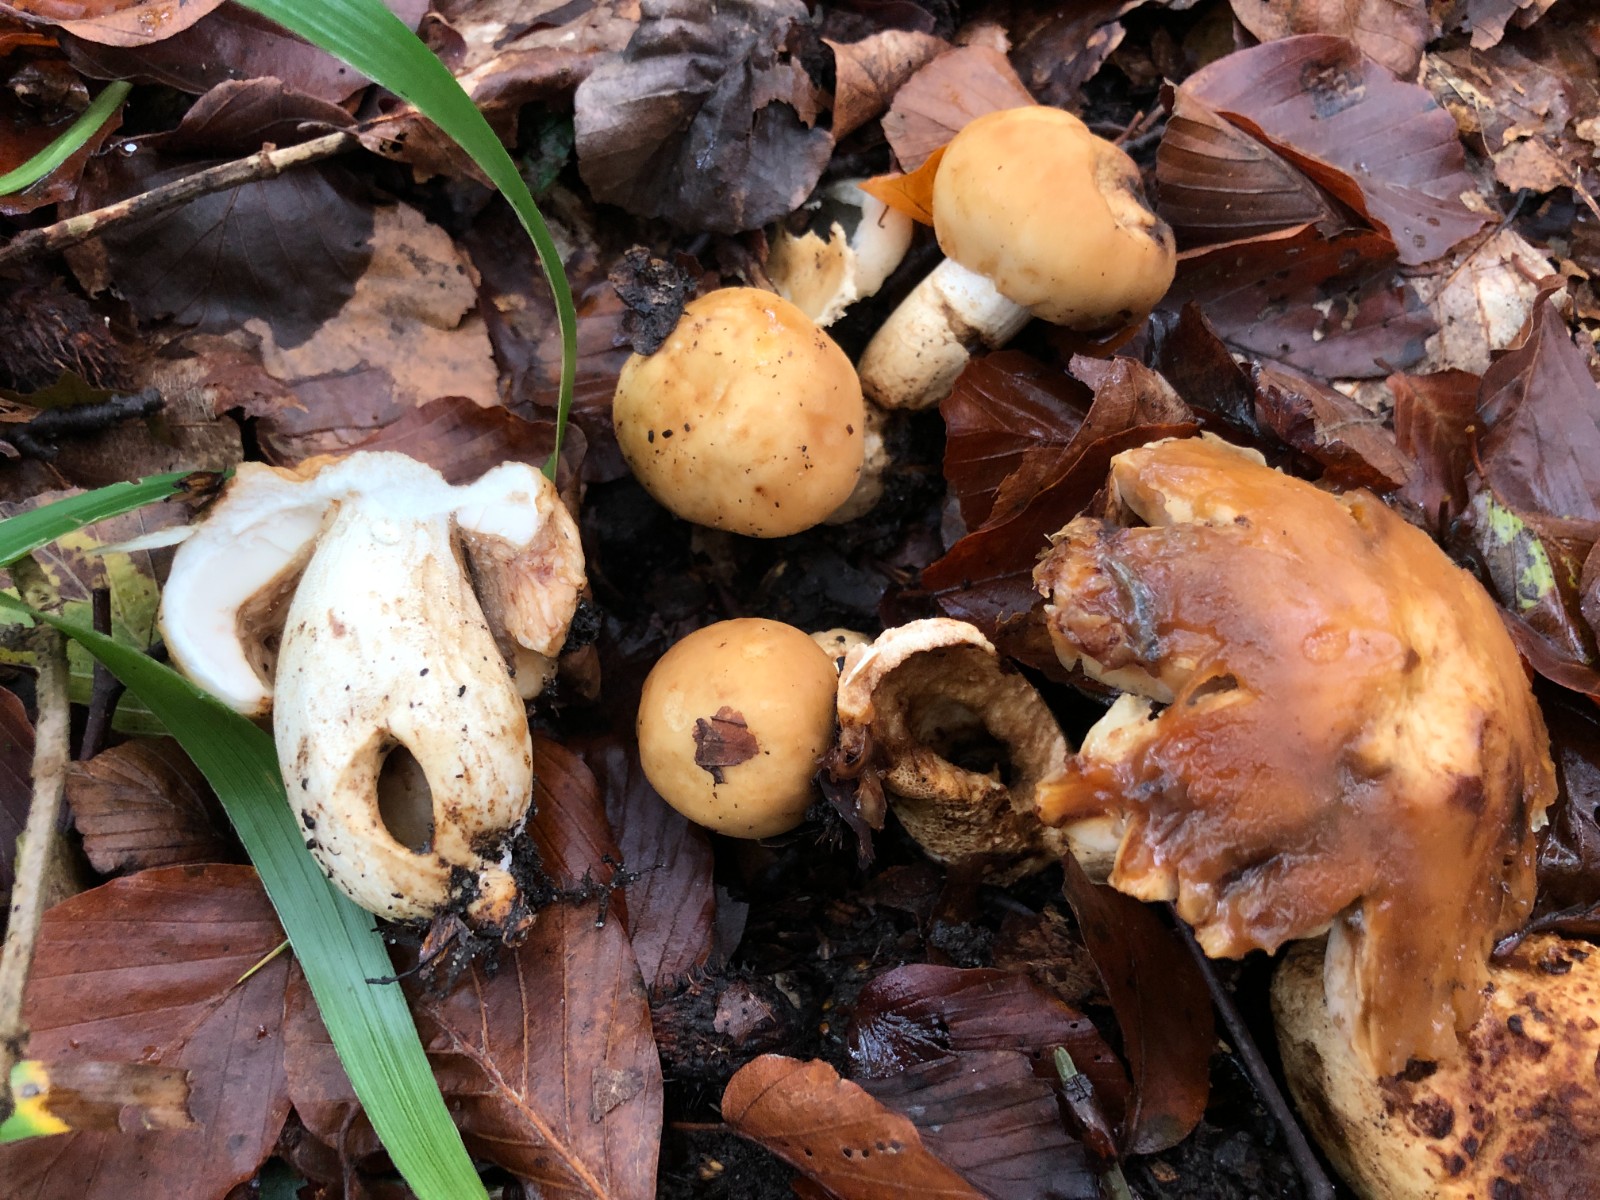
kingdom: Fungi
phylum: Basidiomycota
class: Agaricomycetes
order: Russulales
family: Russulaceae
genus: Russula
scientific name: Russula foetens
